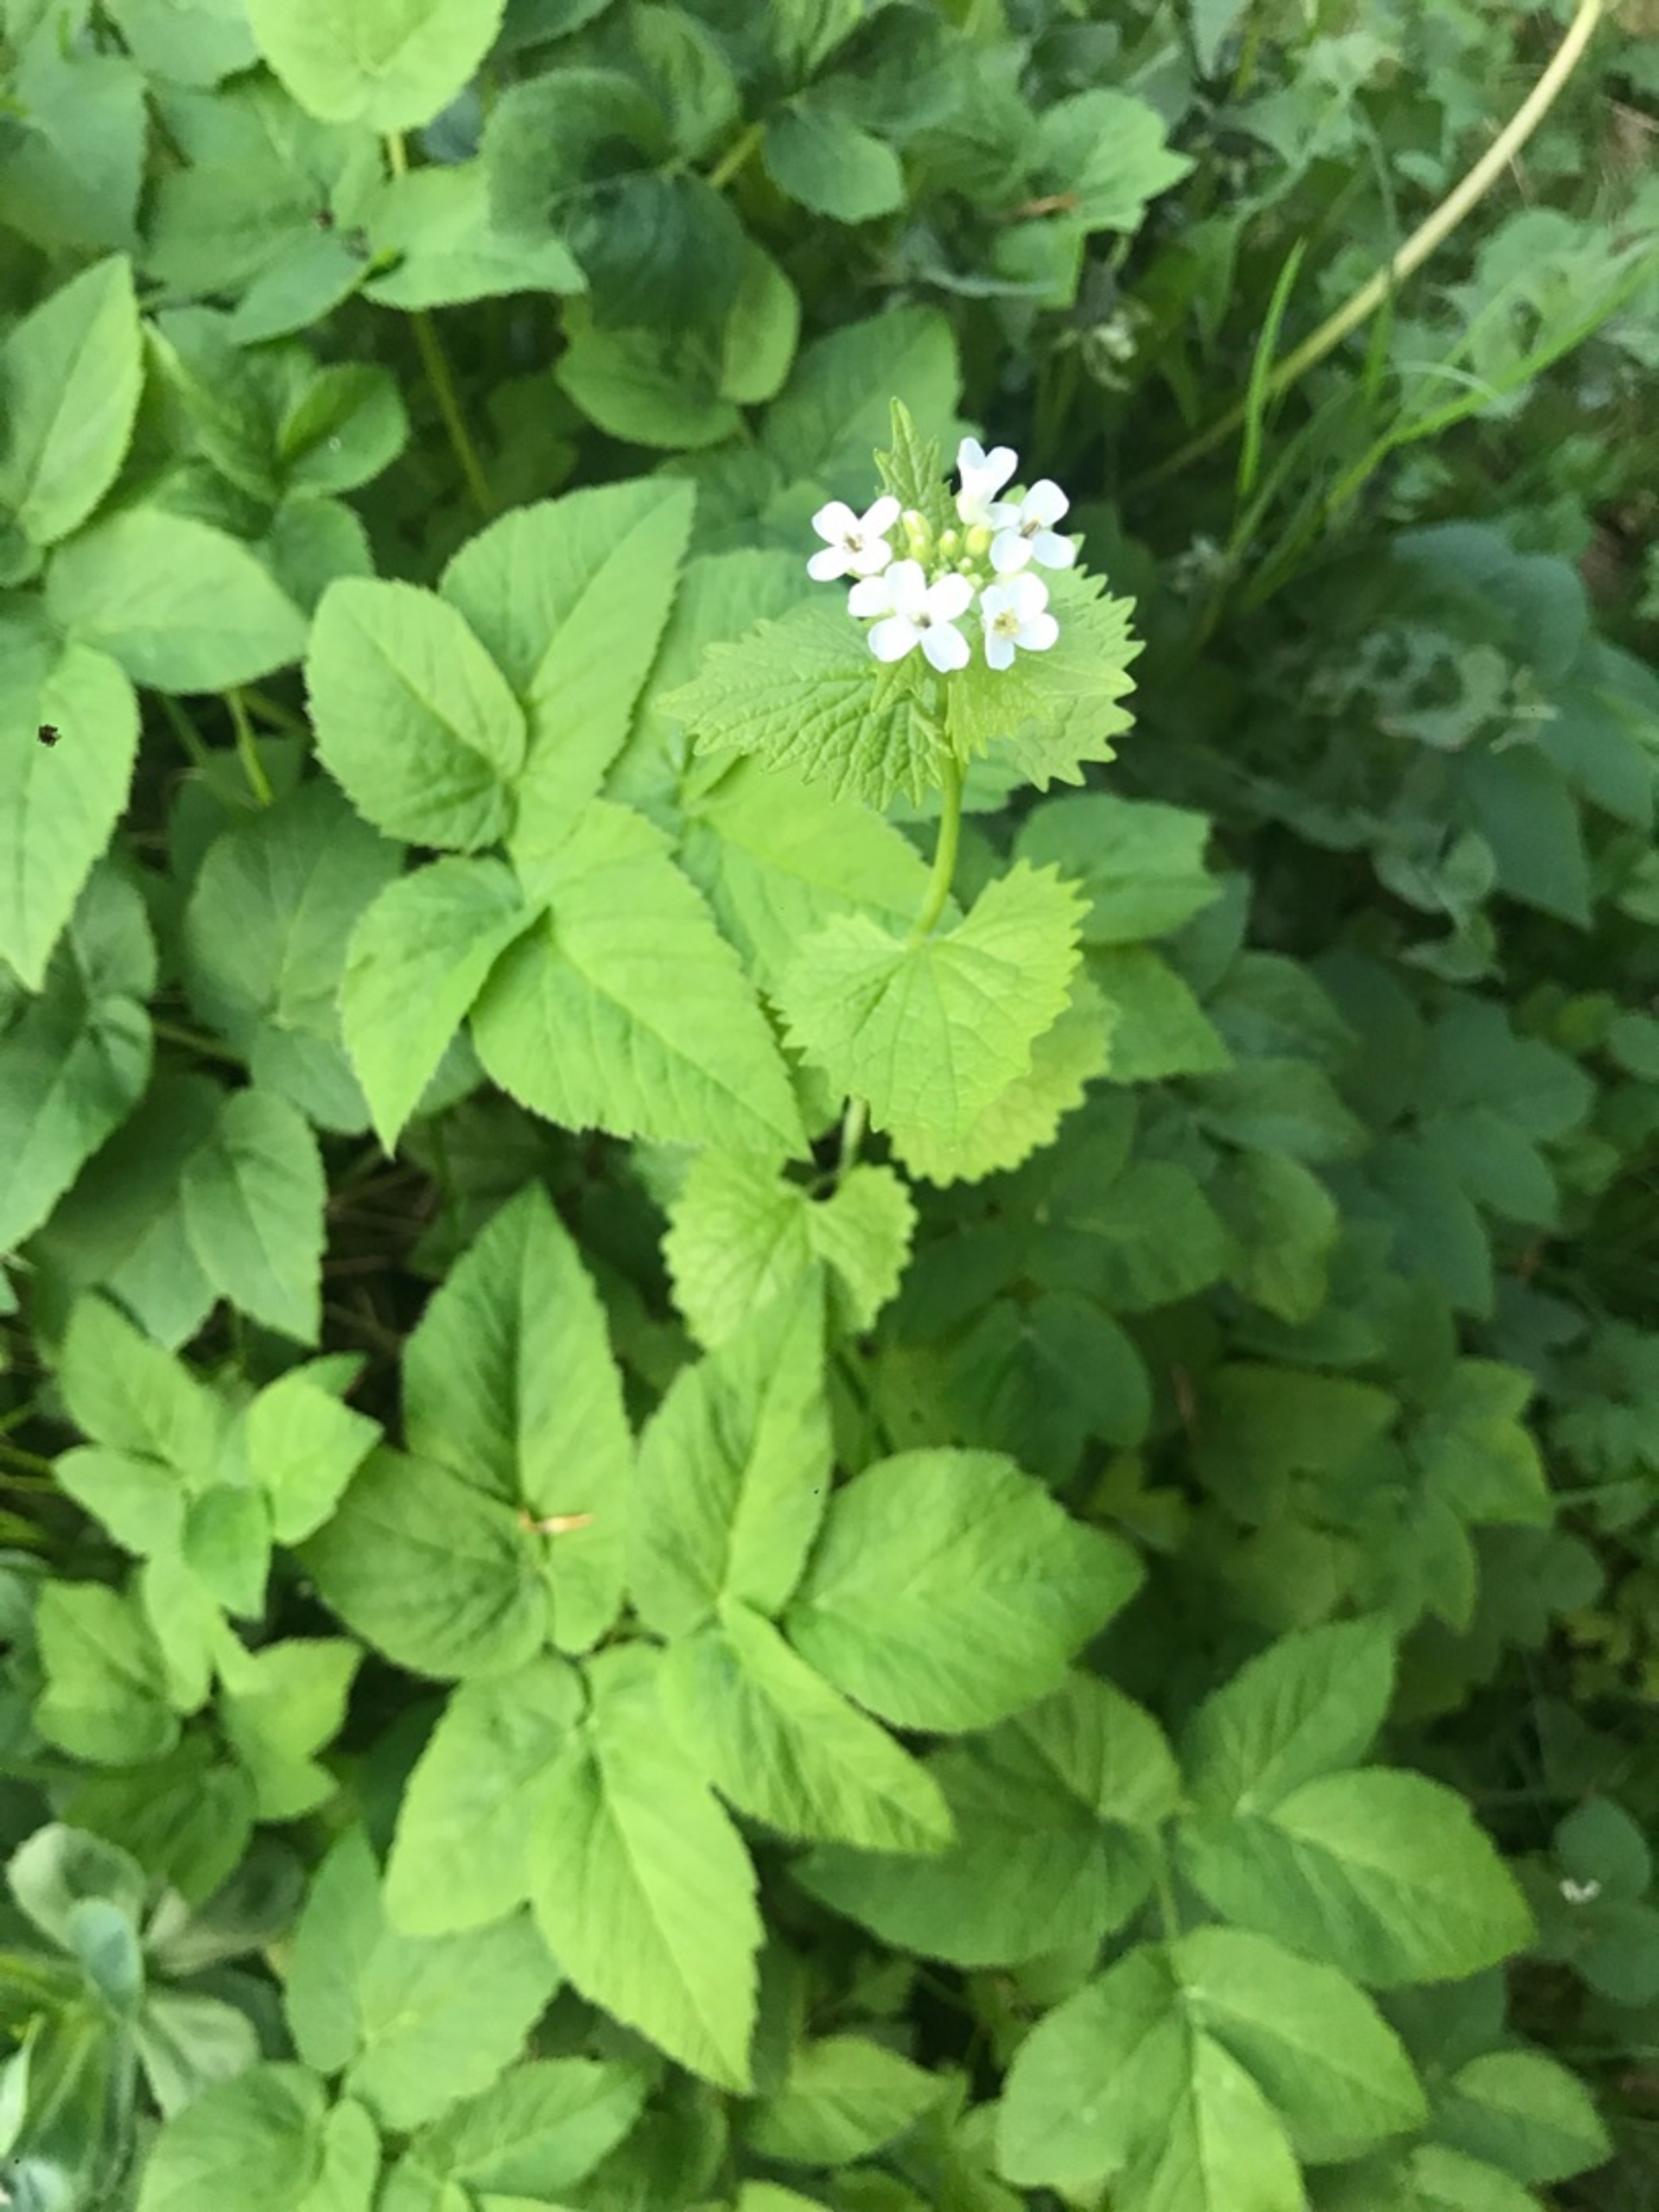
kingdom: Plantae
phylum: Tracheophyta
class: Magnoliopsida
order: Brassicales
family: Brassicaceae
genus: Alliaria
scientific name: Alliaria petiolata
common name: Løgkarse
